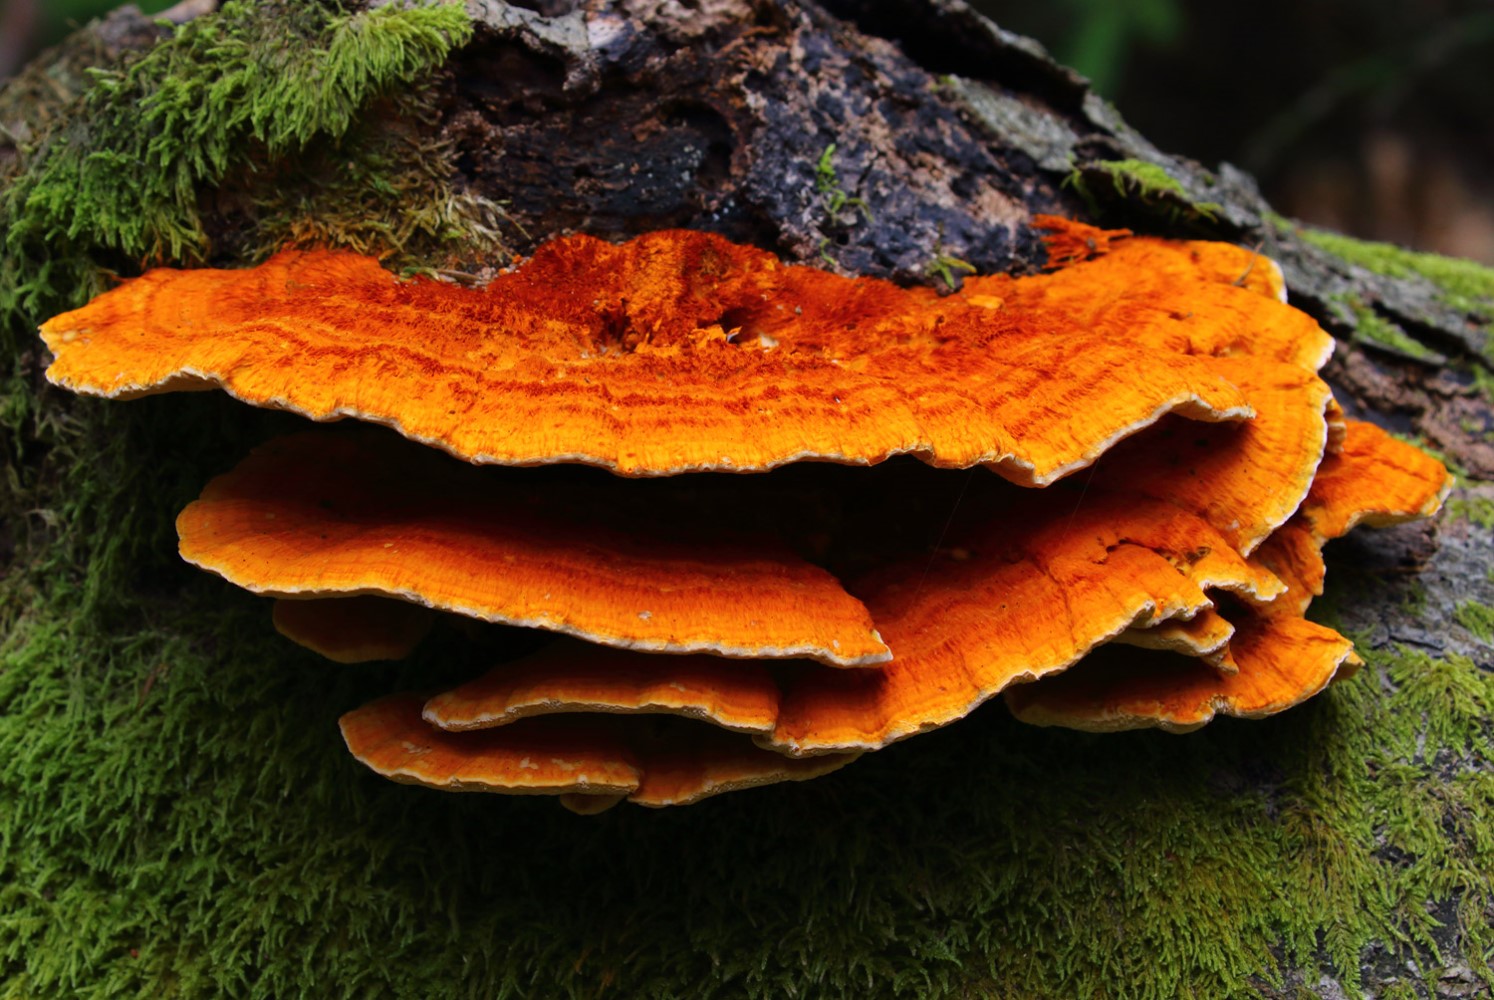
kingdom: Fungi
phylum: Basidiomycota
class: Agaricomycetes
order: Polyporales
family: Pycnoporellaceae
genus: Pycnoporellus
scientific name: Pycnoporellus fulgens
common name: flammeporesvamp
